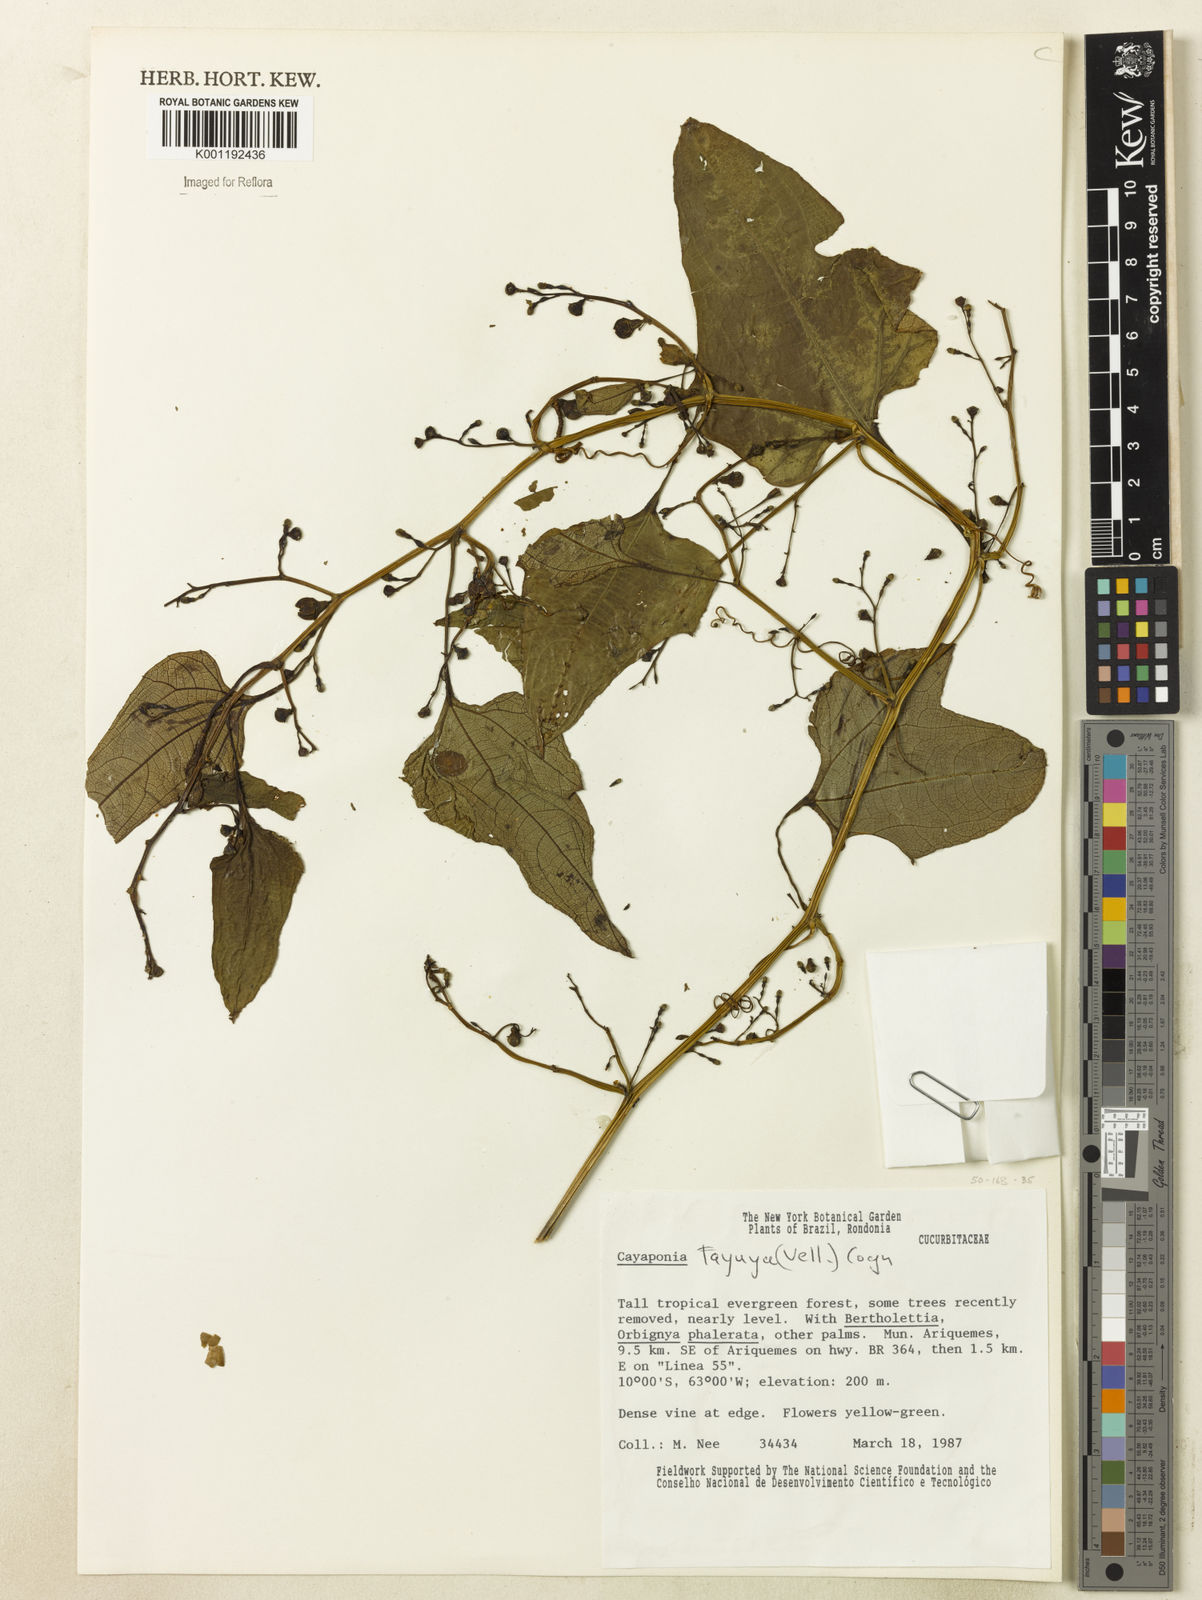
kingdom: Plantae
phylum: Tracheophyta
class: Magnoliopsida
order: Cucurbitales
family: Cucurbitaceae
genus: Cayaponia
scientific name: Cayaponia tayuya
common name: Tayuya
